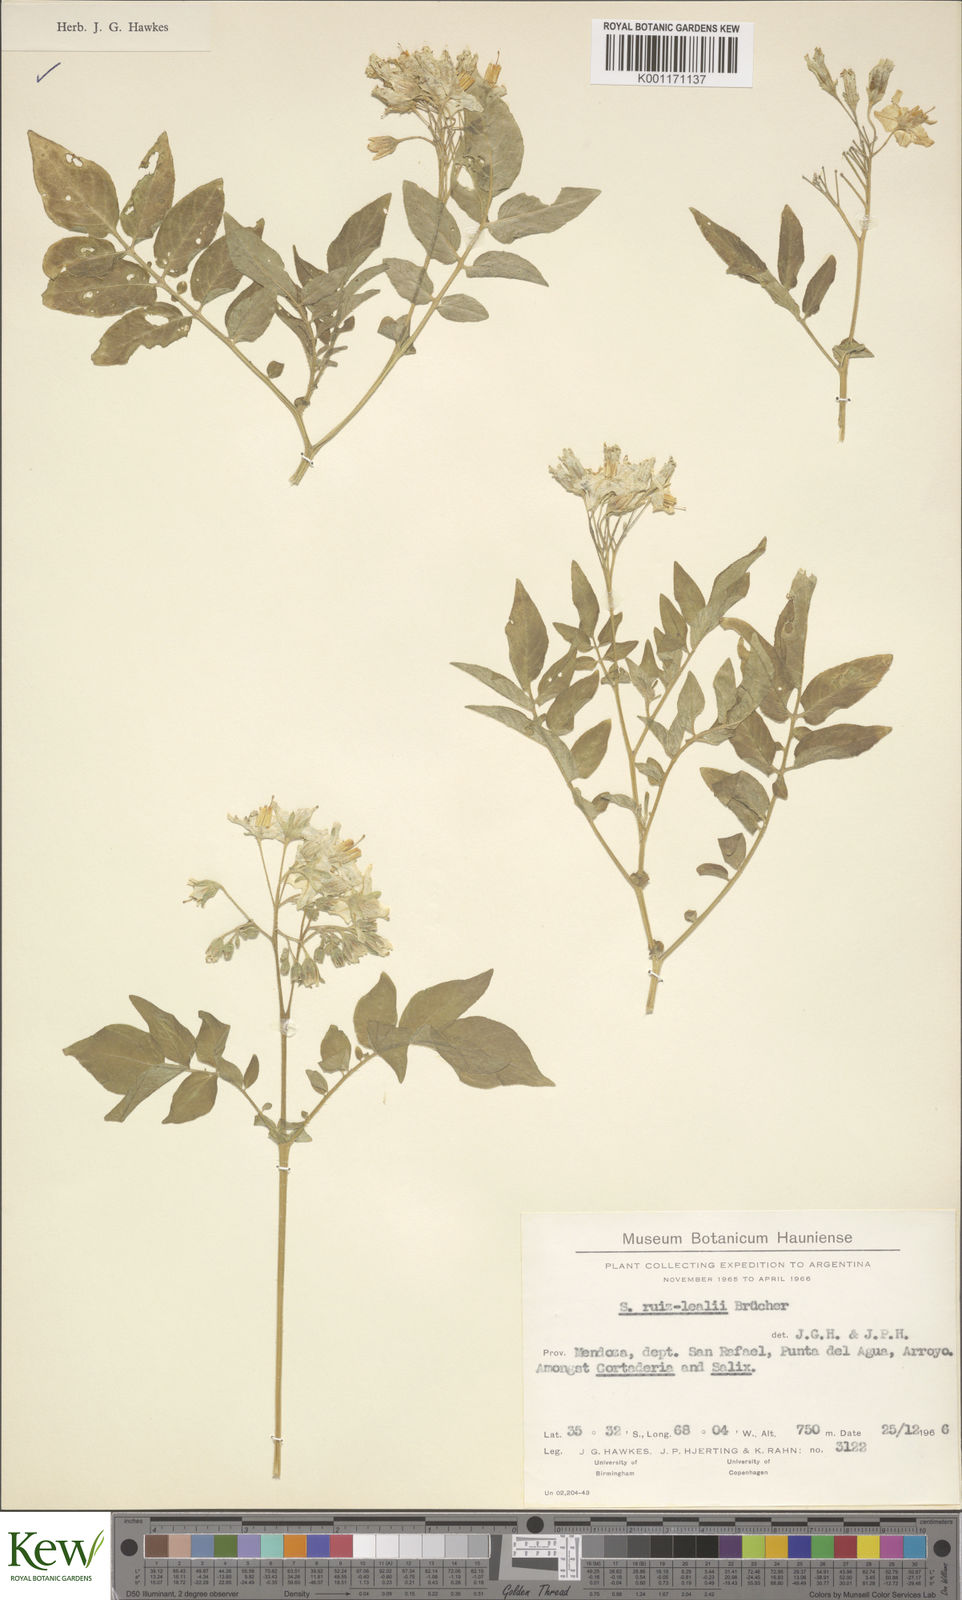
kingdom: Plantae
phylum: Tracheophyta
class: Magnoliopsida
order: Solanales
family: Solanaceae
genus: Solanum
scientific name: Solanum chacoense
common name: Chaco potato
